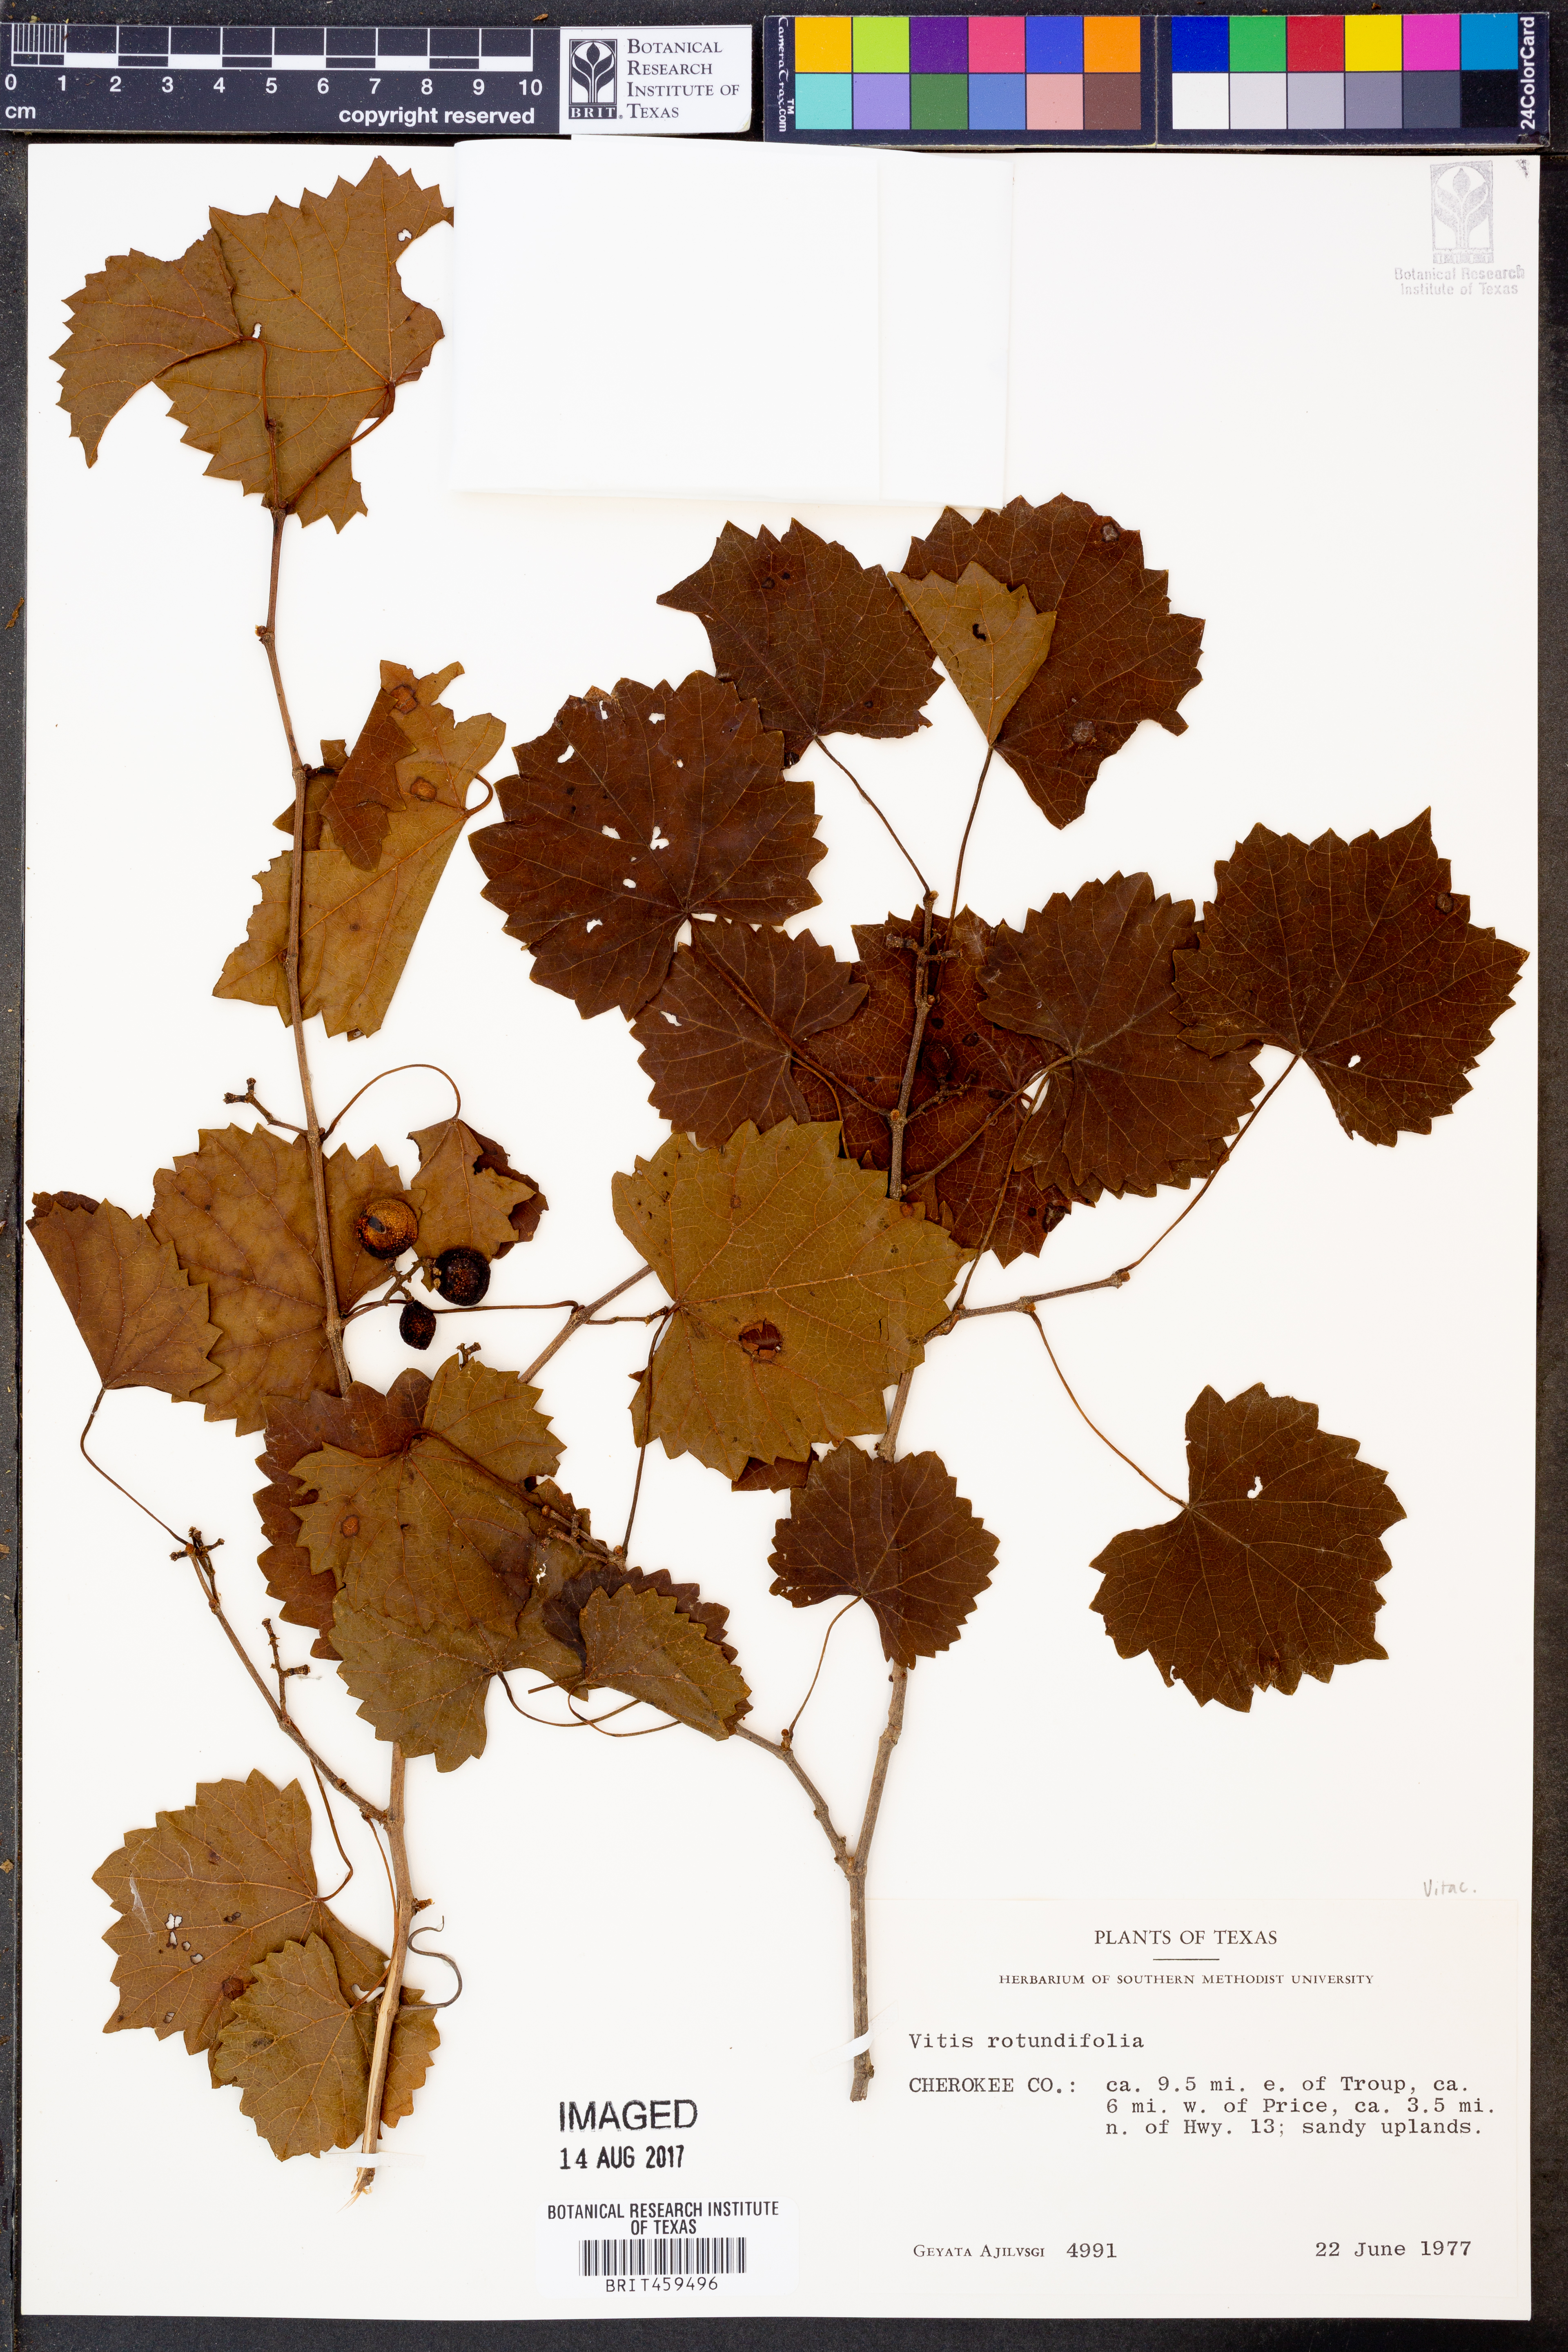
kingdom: Plantae
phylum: Tracheophyta
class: Magnoliopsida
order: Vitales
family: Vitaceae
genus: Vitis
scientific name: Vitis rotundifolia
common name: Muscadine grape
